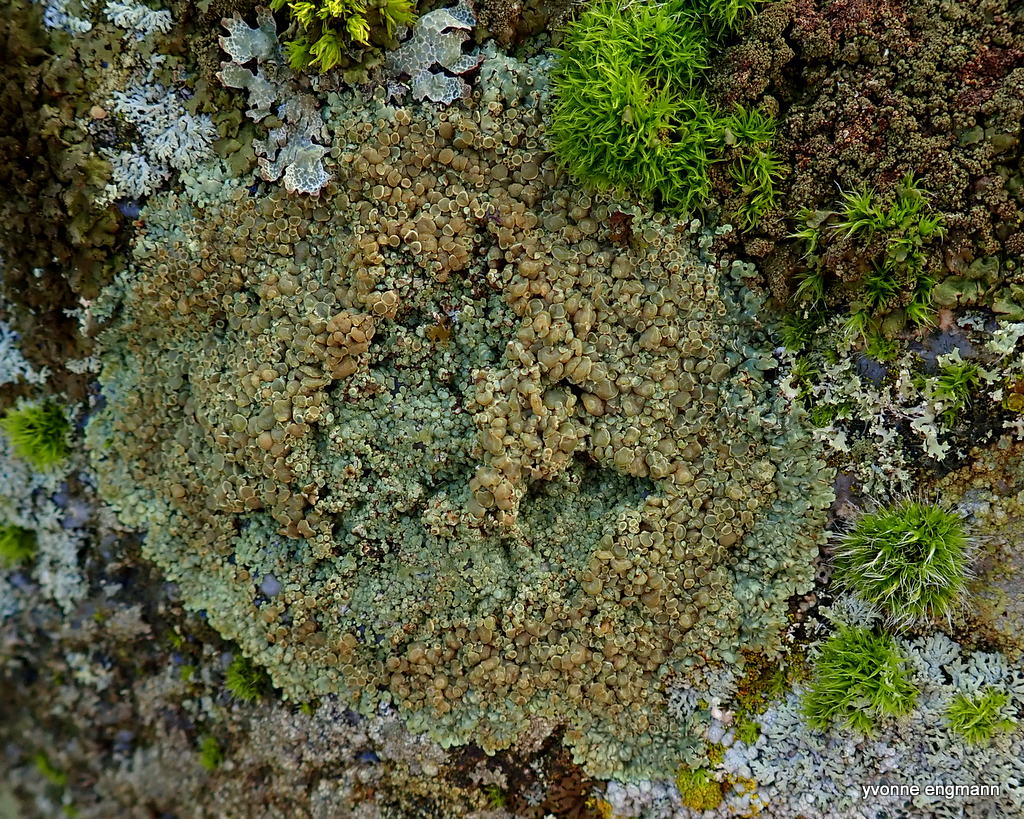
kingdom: Fungi
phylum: Ascomycota
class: Lecanoromycetes
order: Lecanorales
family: Lecanoraceae
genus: Protoparmeliopsis
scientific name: Protoparmeliopsis muralis
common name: randfliget kantskivelav
